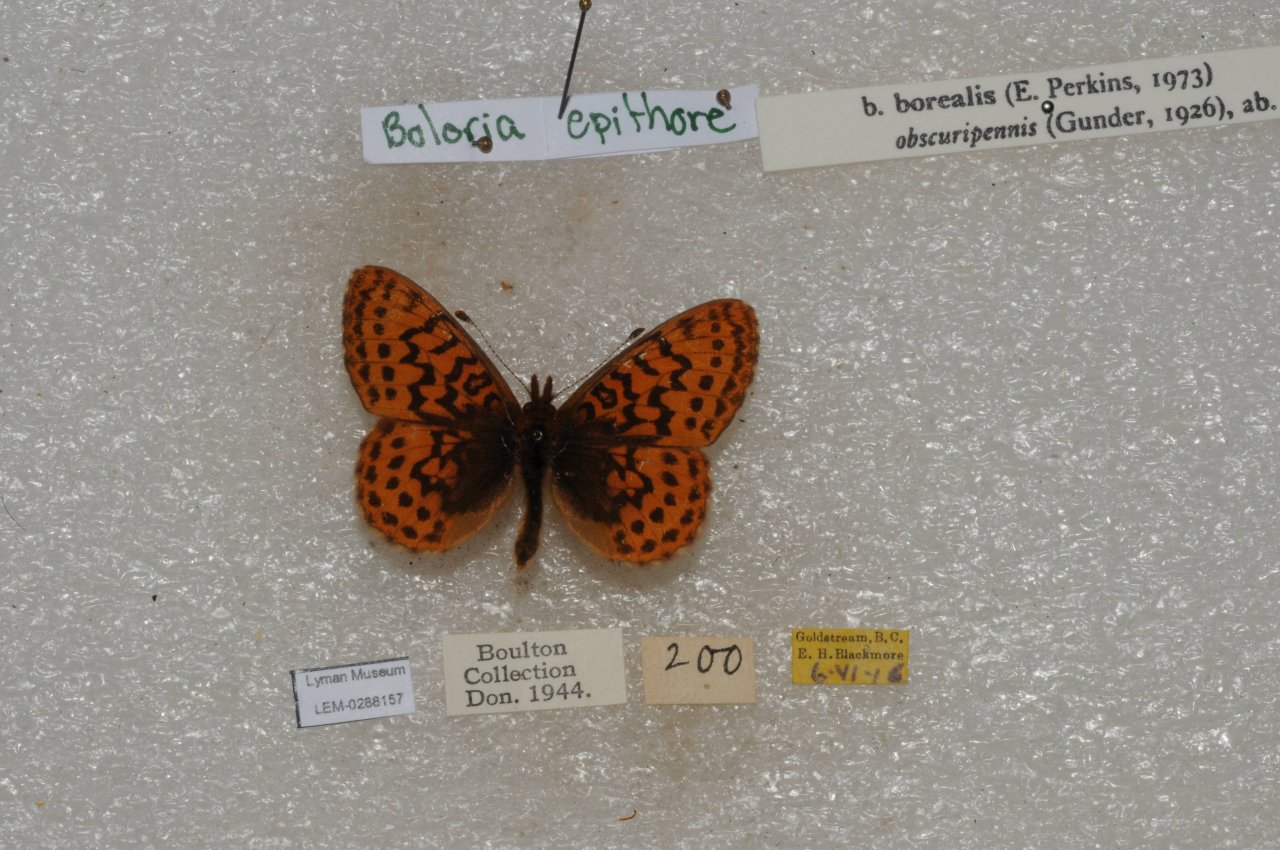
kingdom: Animalia
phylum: Arthropoda
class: Insecta
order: Lepidoptera
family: Nymphalidae
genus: Boloria
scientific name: Boloria epithore
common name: Pacific Fritillary
